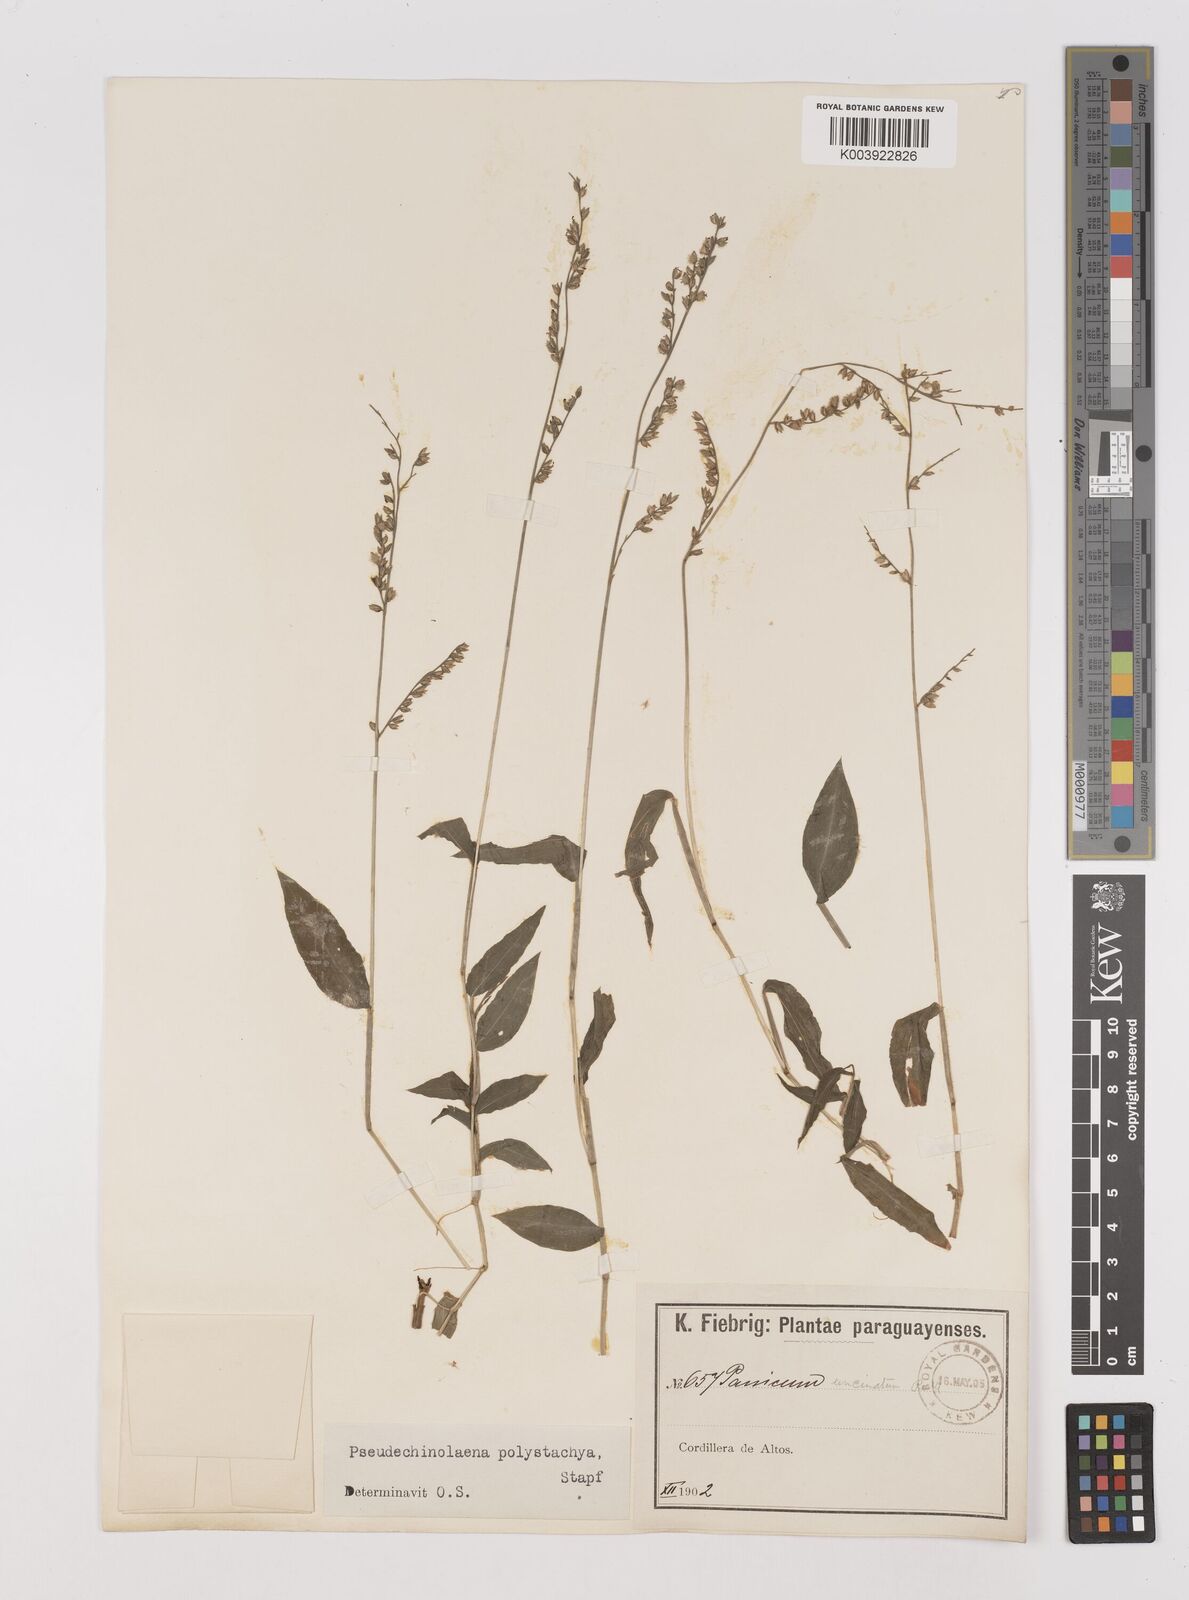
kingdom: Plantae
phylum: Tracheophyta
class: Liliopsida
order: Poales
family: Poaceae
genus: Pseudechinolaena
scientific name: Pseudechinolaena polystachya
